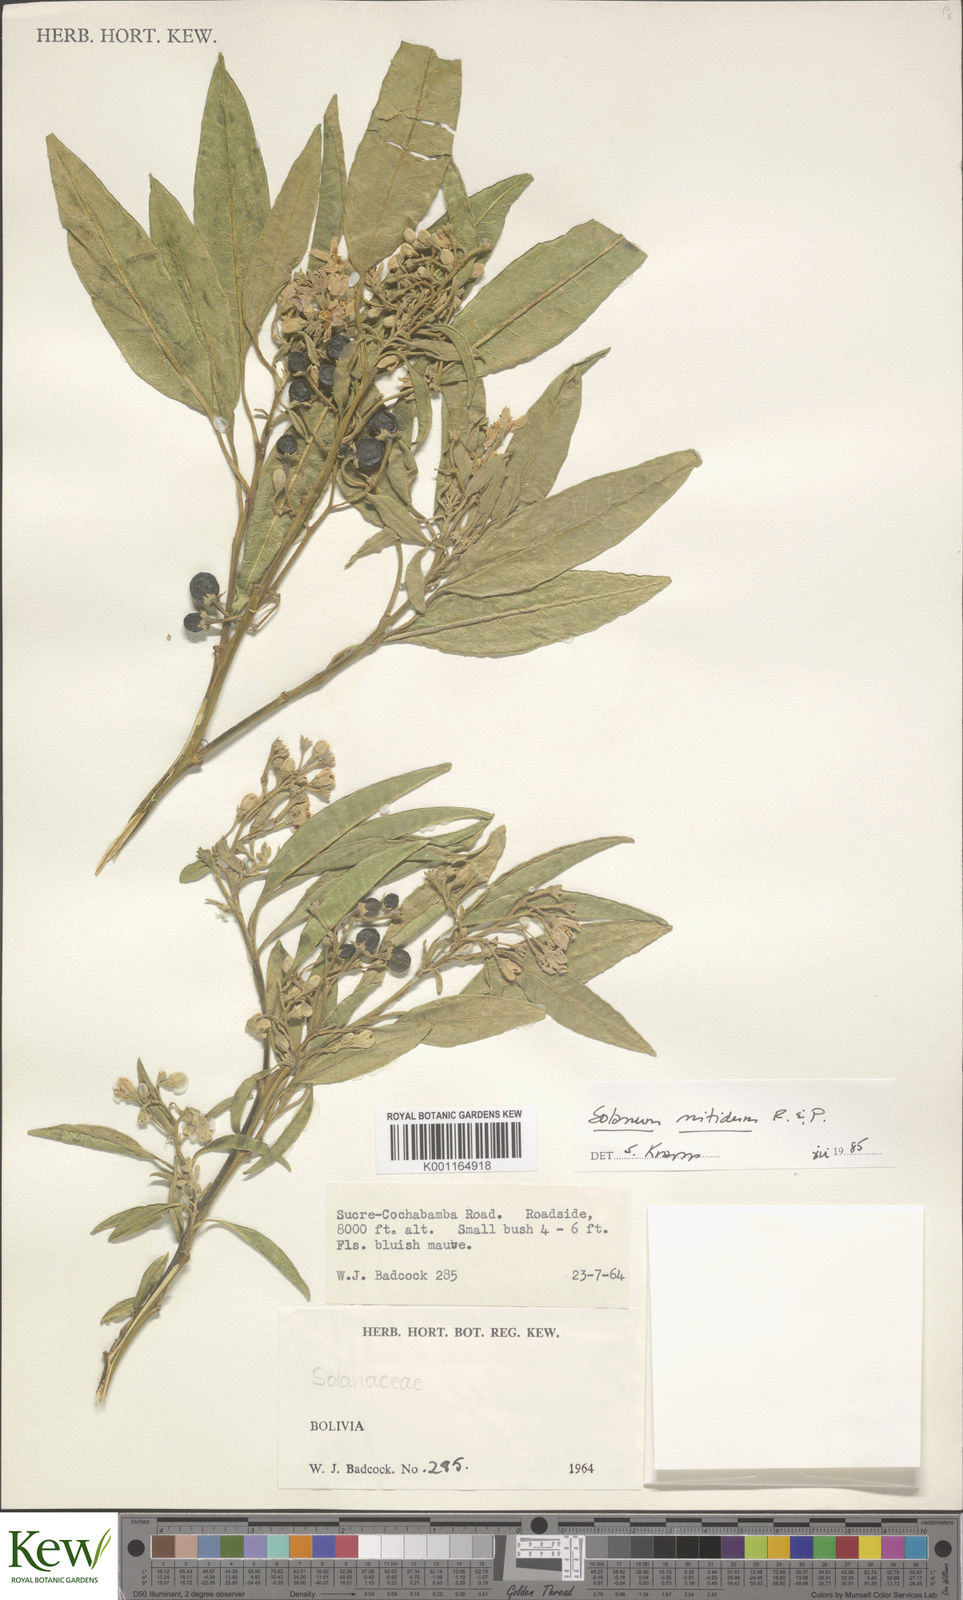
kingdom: Plantae
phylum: Tracheophyta
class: Magnoliopsida
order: Solanales
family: Solanaceae
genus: Solanum
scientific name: Solanum nitidum
